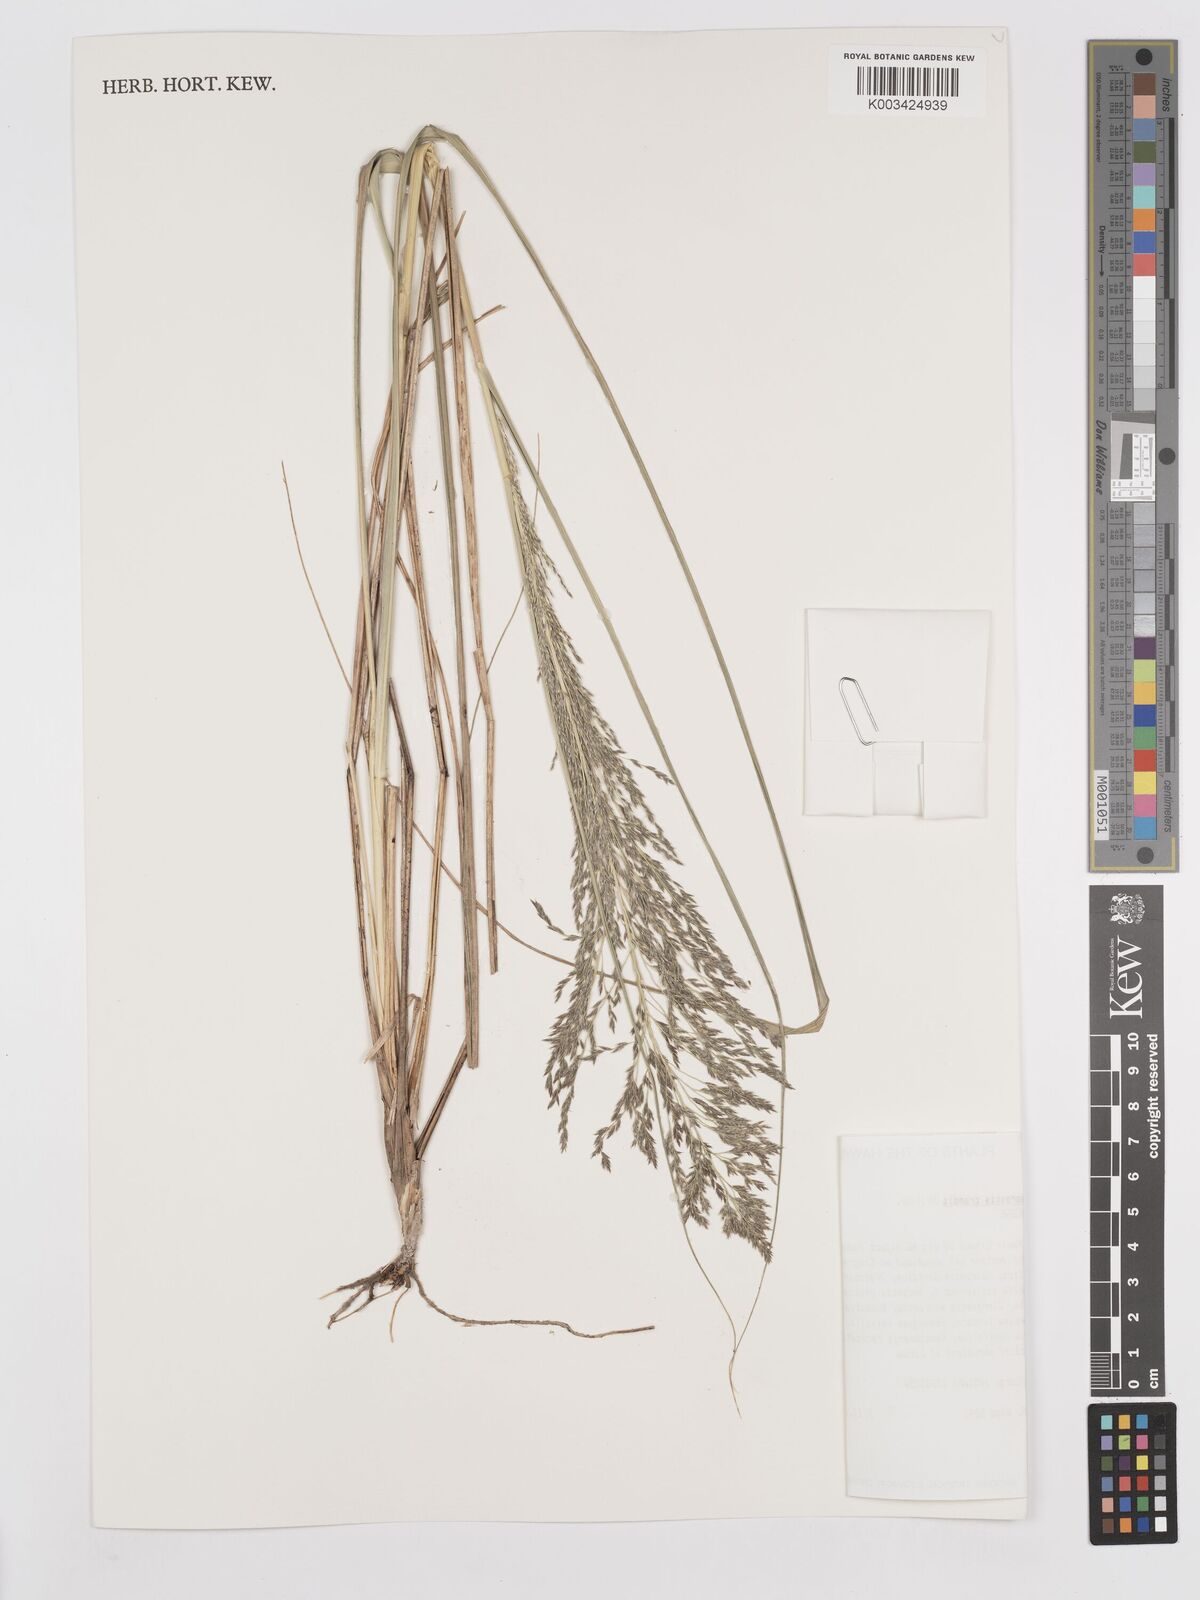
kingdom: Plantae
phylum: Tracheophyta
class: Liliopsida
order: Poales
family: Poaceae
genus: Eragrostis
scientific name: Eragrostis grandis
